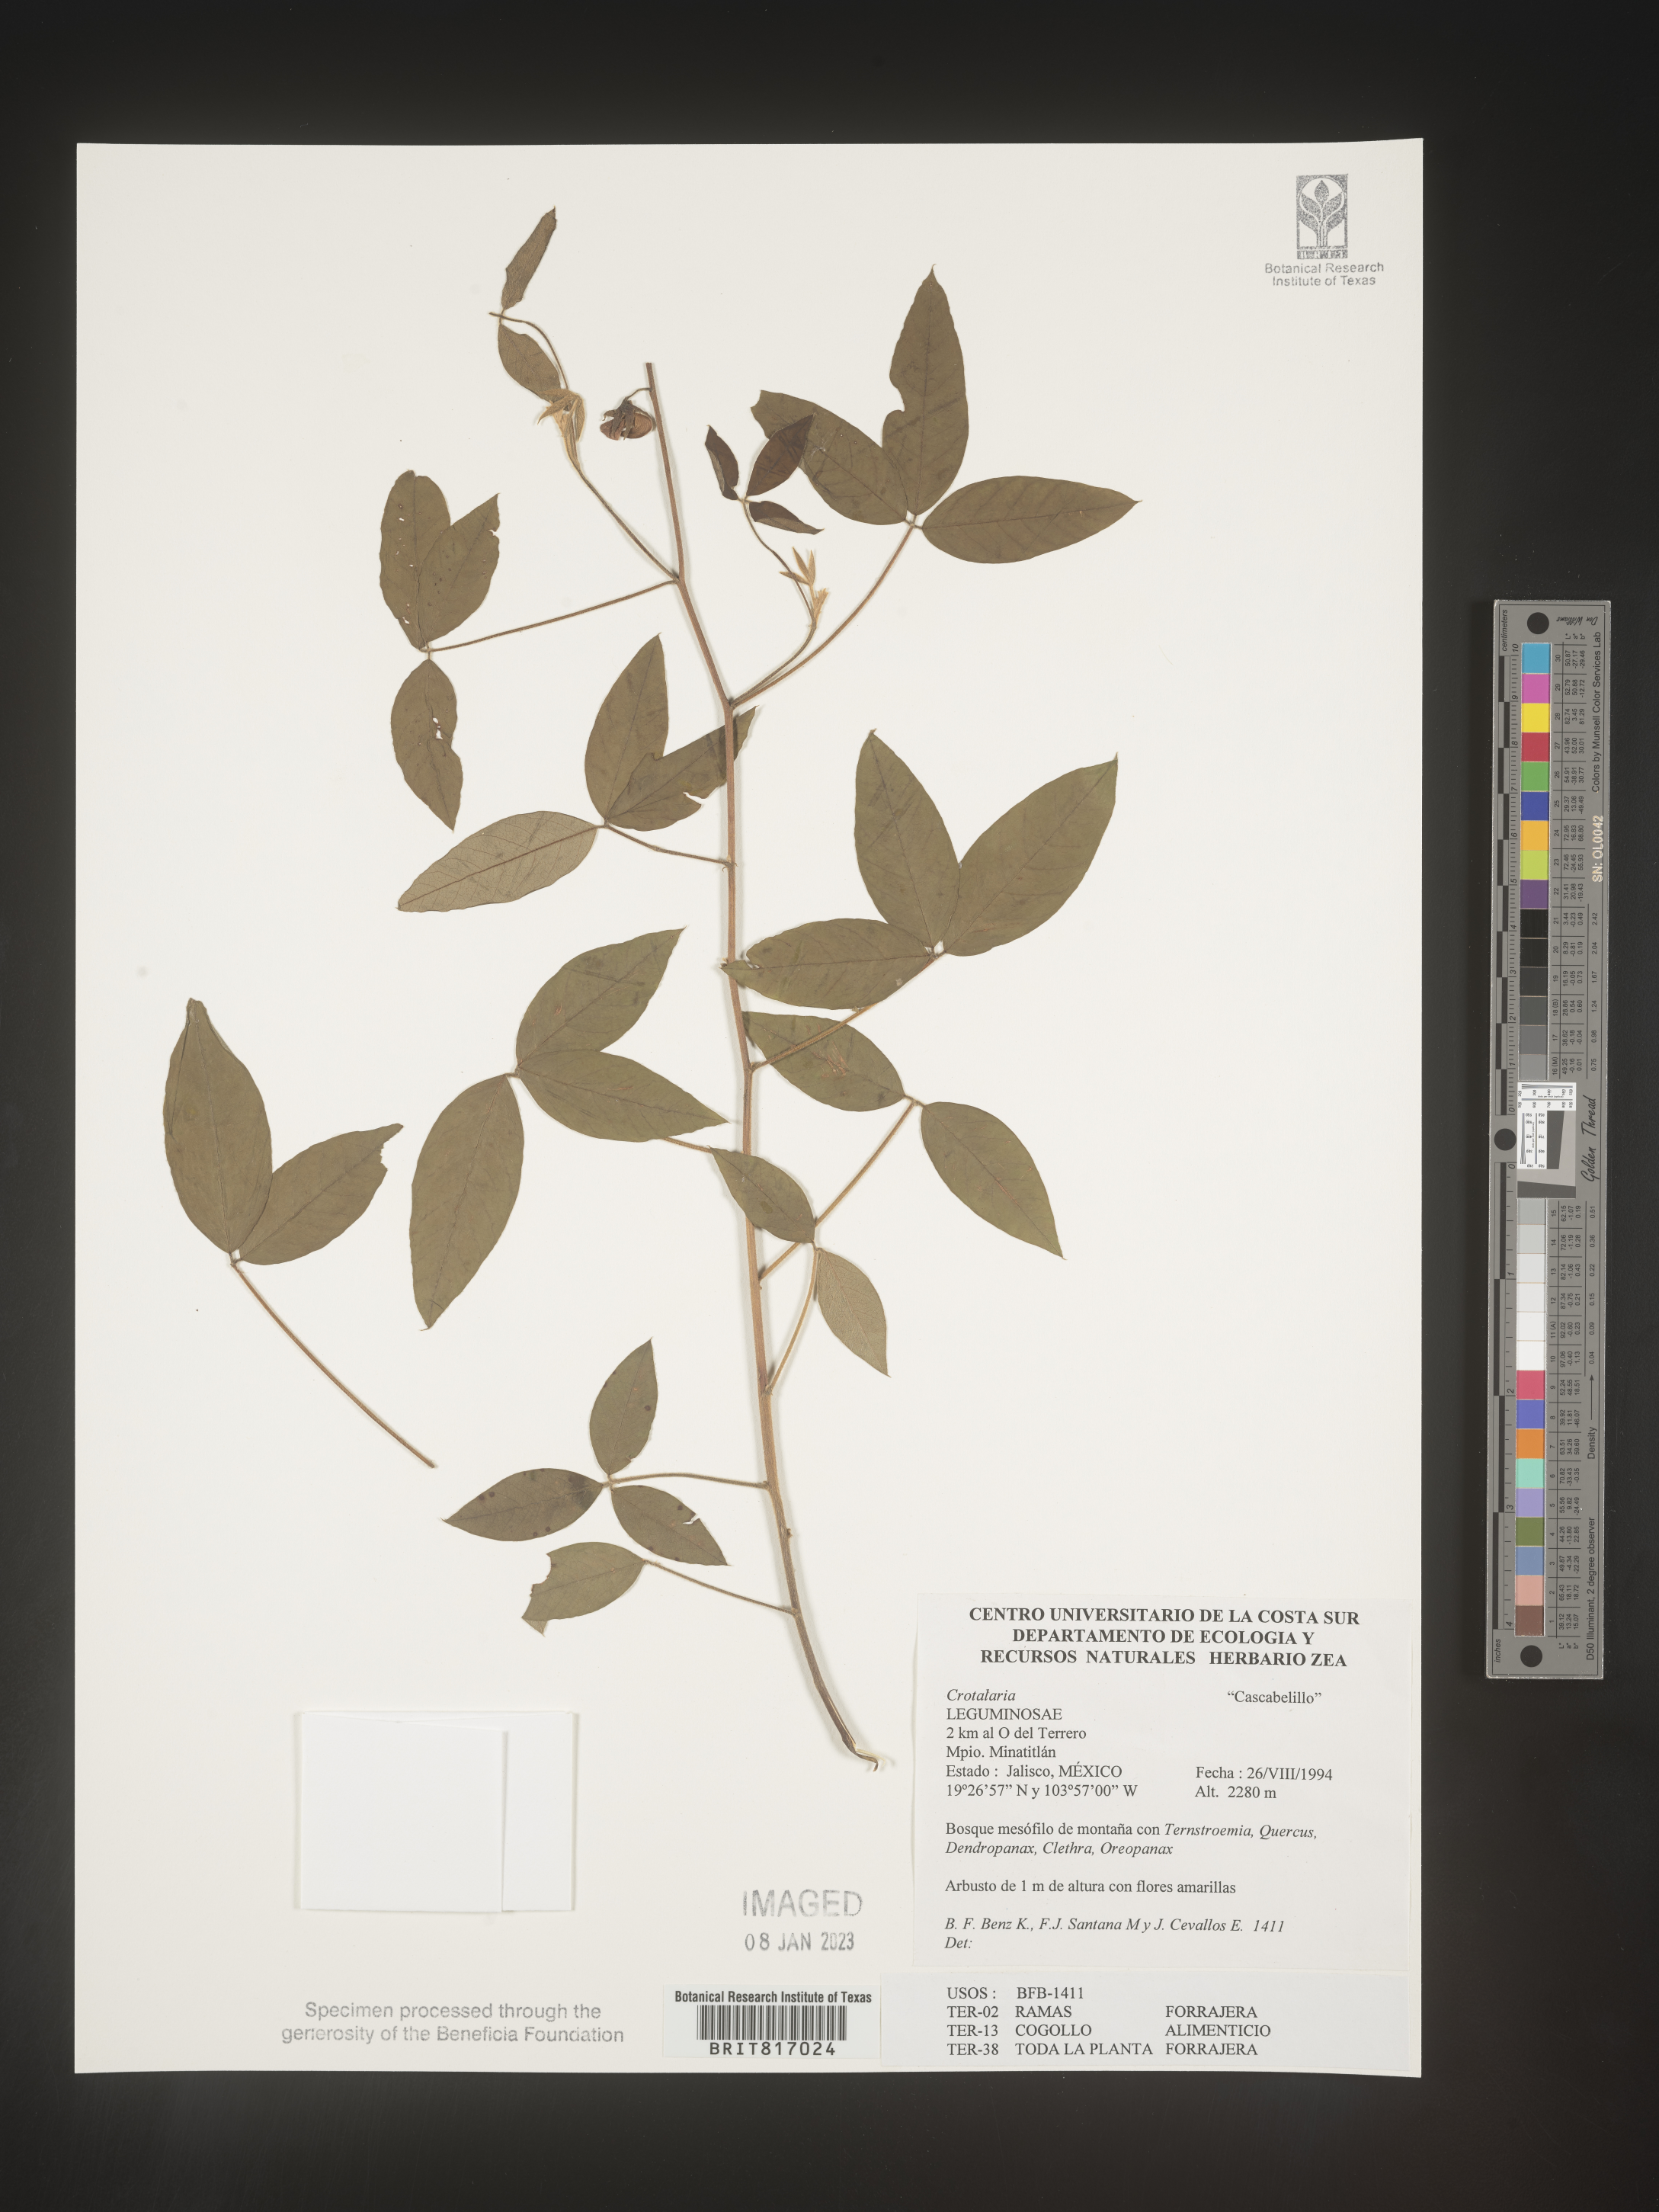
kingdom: Plantae
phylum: Tracheophyta
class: Magnoliopsida
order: Fabales
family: Fabaceae
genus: Crotalaria
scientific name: Crotalaria
